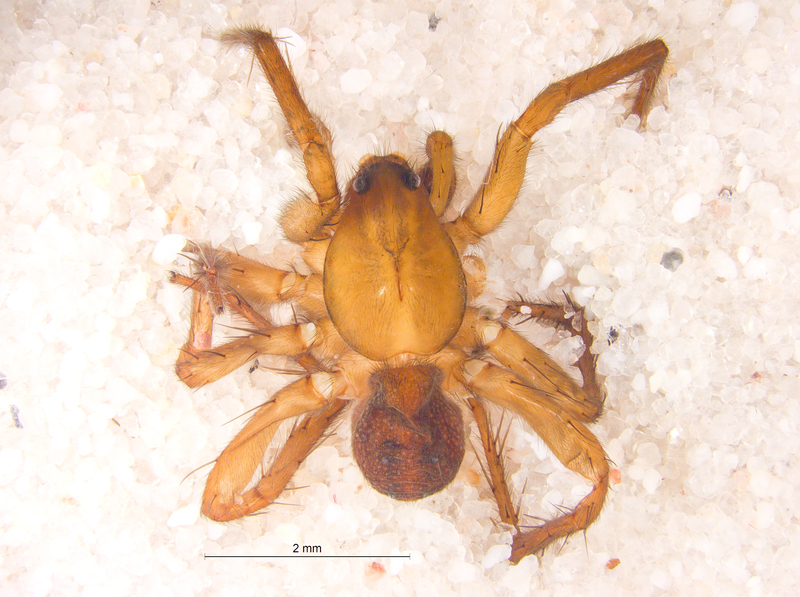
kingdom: Animalia
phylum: Arthropoda
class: Arachnida
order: Araneae
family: Lycosidae
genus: Piratula
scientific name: Piratula uliginosa
